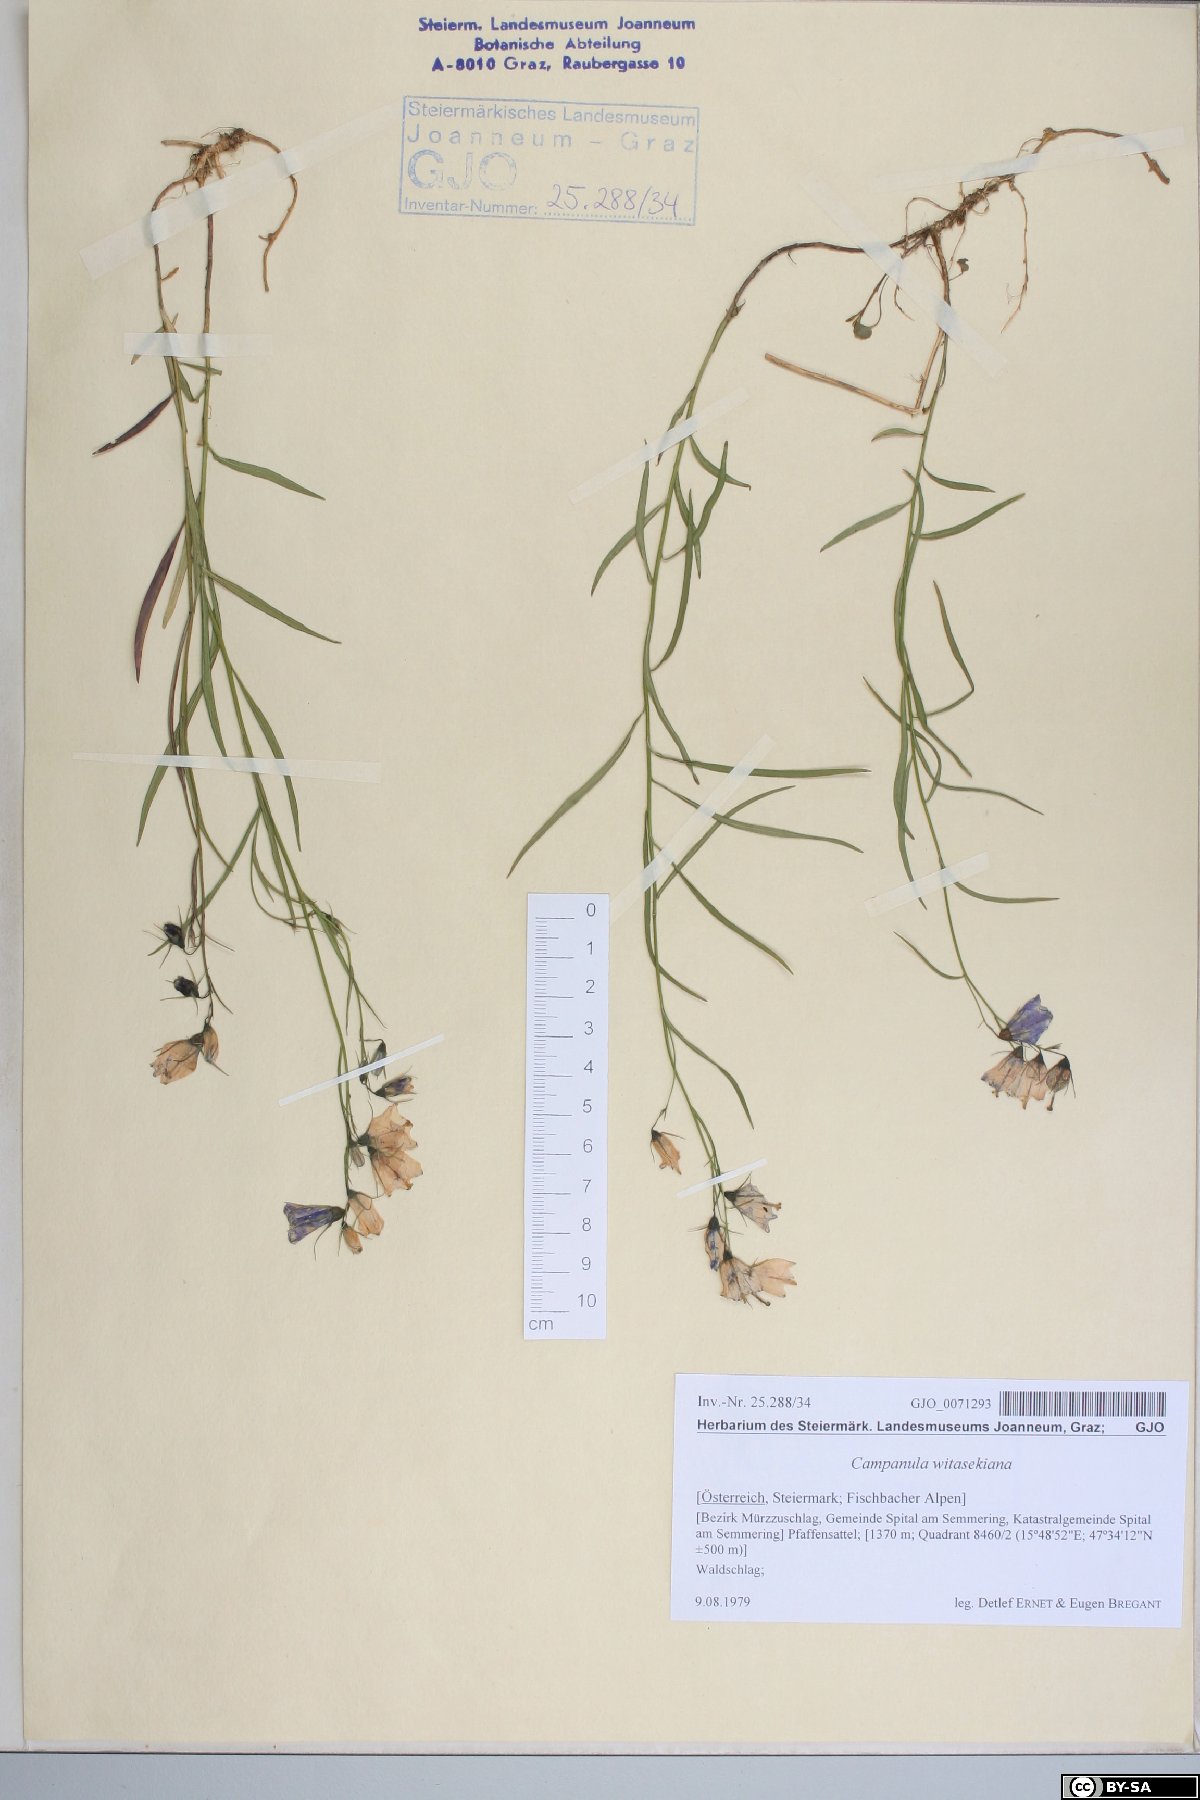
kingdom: Plantae
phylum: Tracheophyta
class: Magnoliopsida
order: Asterales
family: Campanulaceae
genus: Campanula
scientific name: Campanula witasekiana
